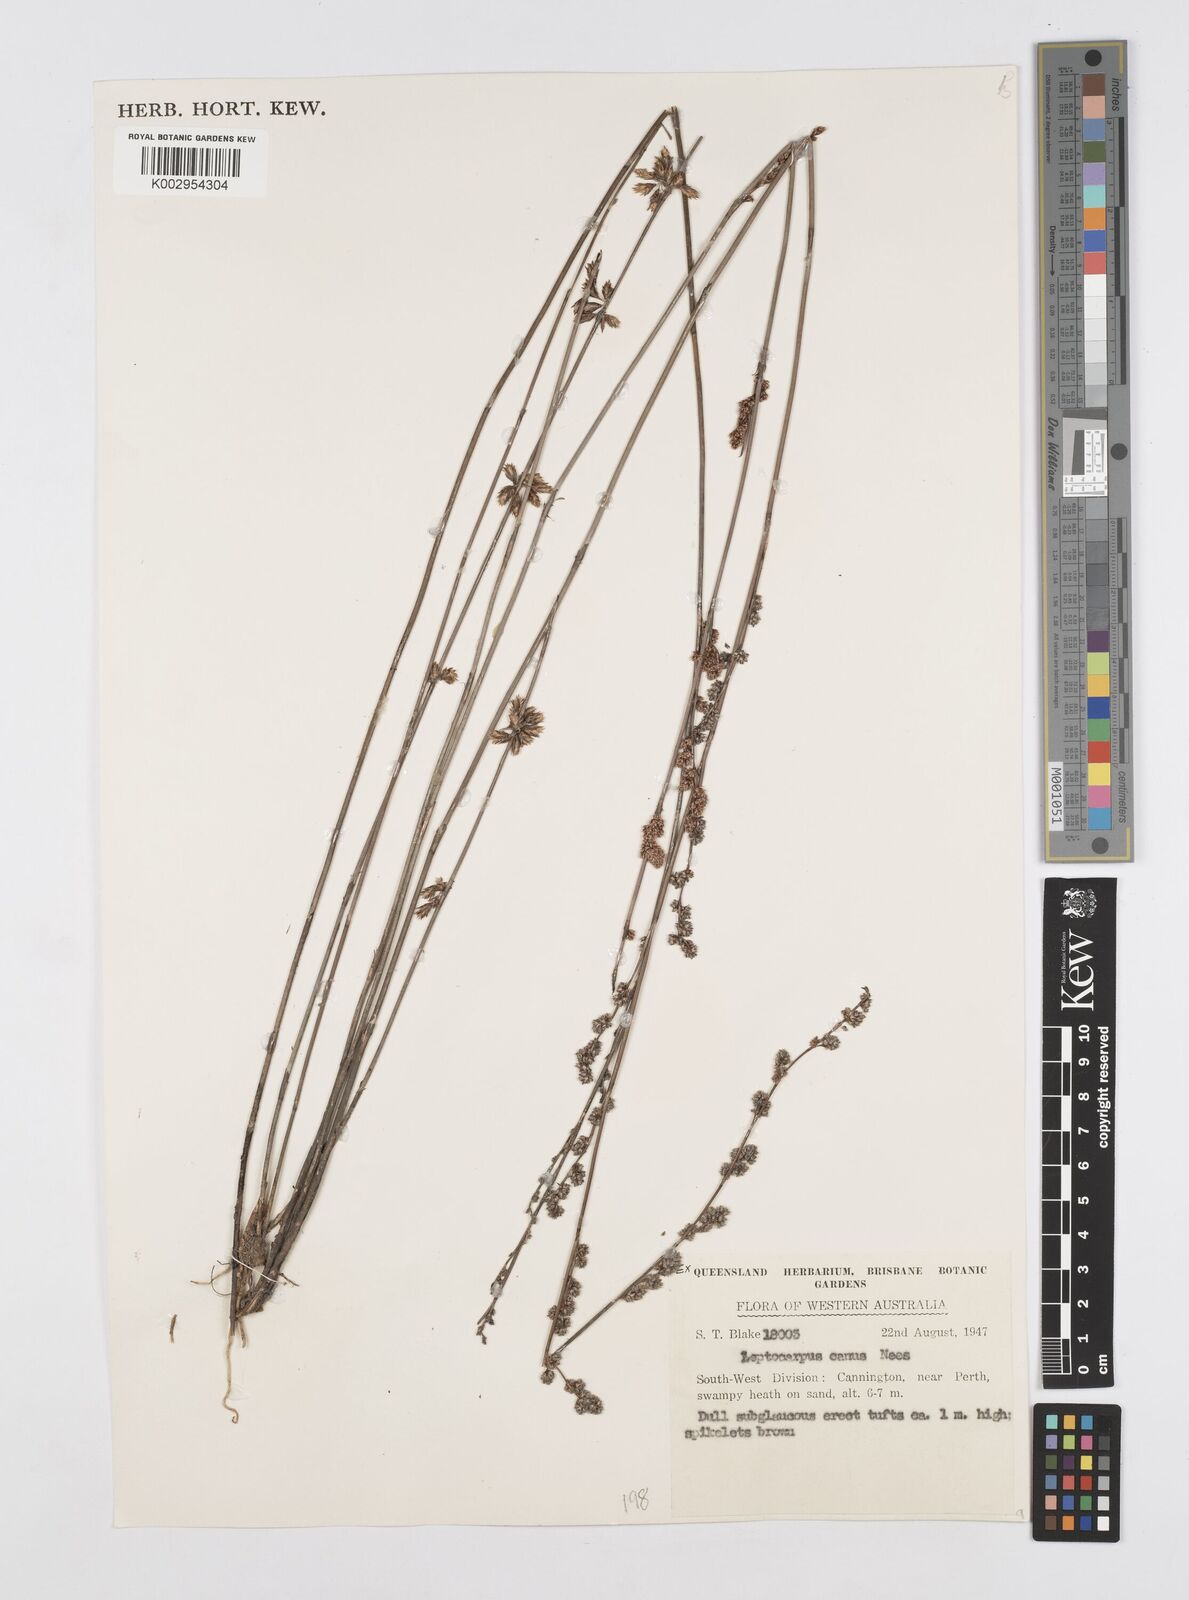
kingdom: Plantae
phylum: Tracheophyta
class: Liliopsida
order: Poales
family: Restionaceae
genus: Leptocarpus
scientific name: Leptocarpus canus
